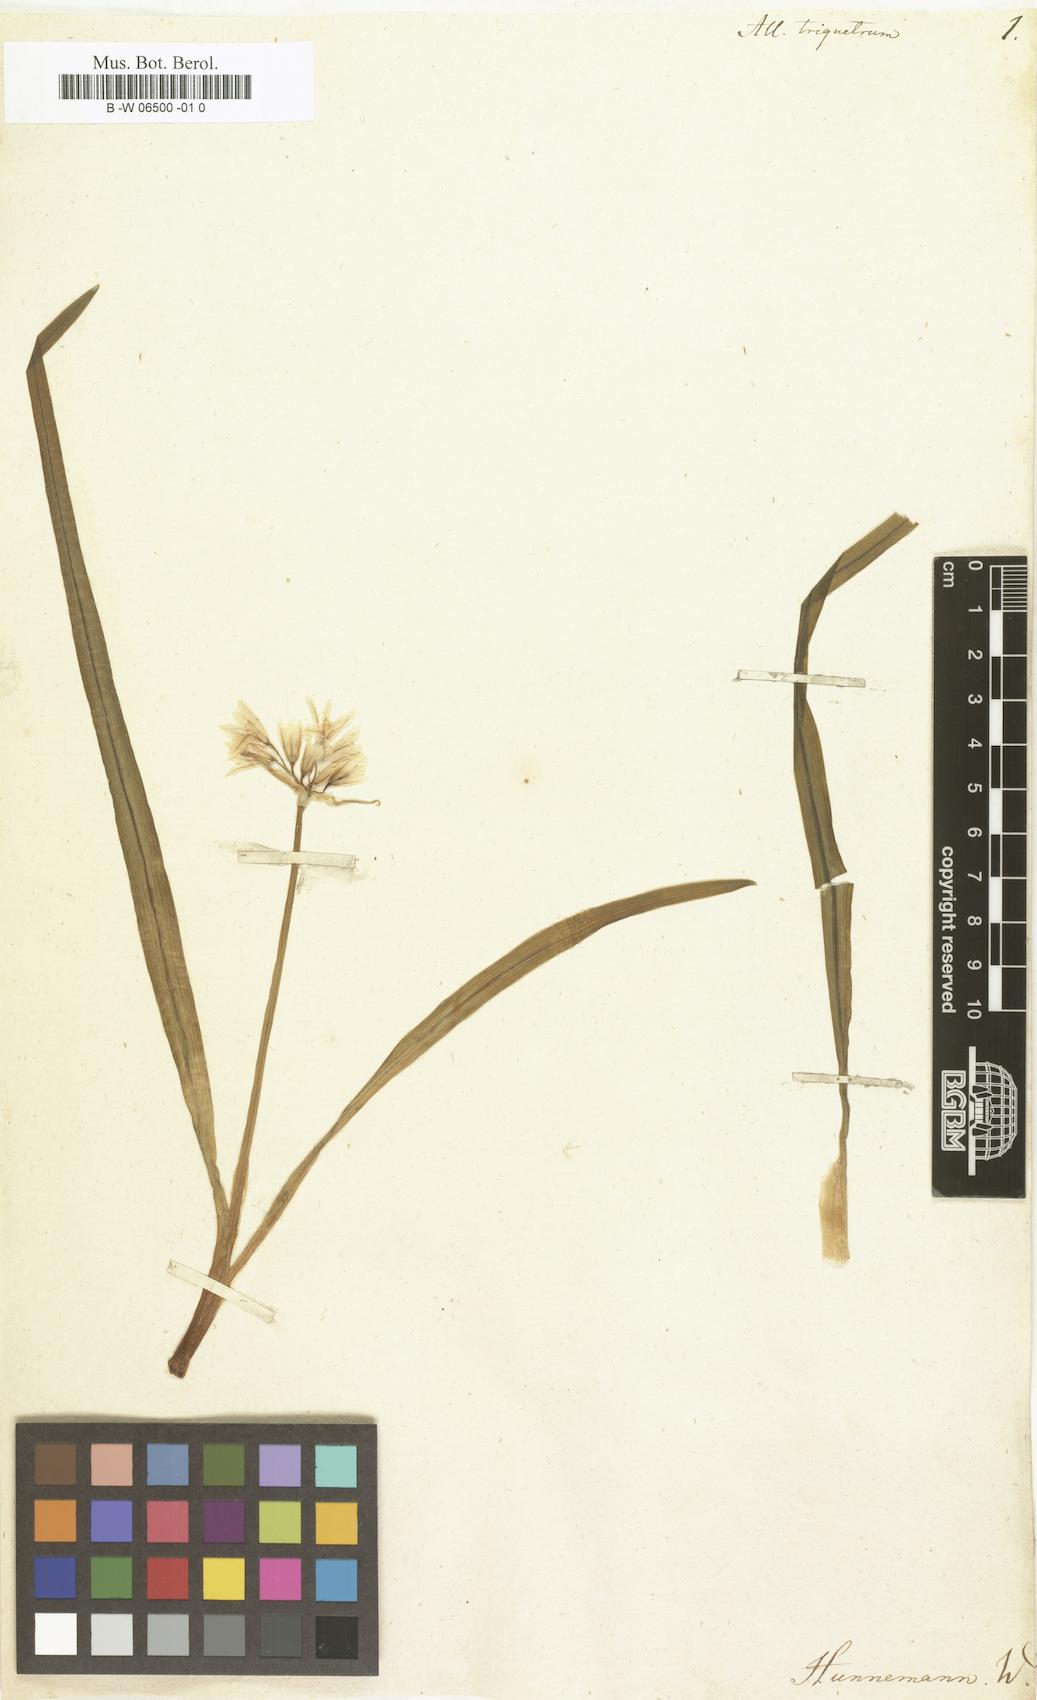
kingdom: Plantae
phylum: Tracheophyta
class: Liliopsida
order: Asparagales
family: Amaryllidaceae
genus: Allium
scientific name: Allium triquetrum
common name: Three-cornered garlic
